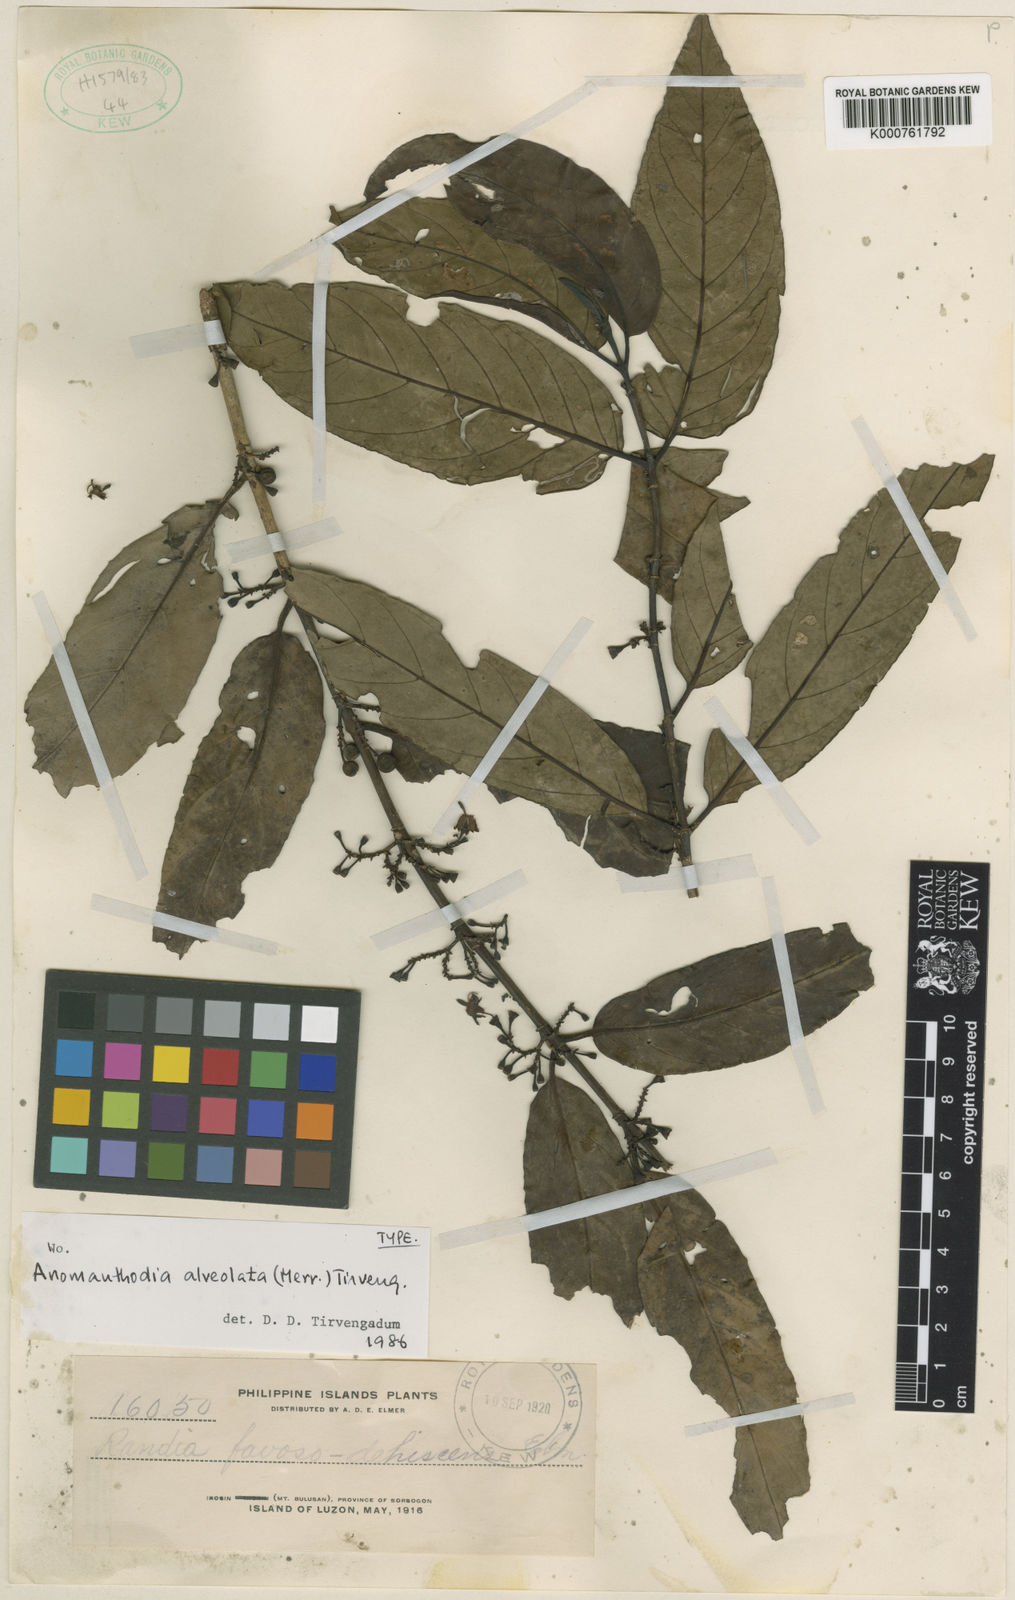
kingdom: Plantae
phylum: Tracheophyta
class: Magnoliopsida
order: Gentianales
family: Rubiaceae
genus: Aidia
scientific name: Aidia bakeri
